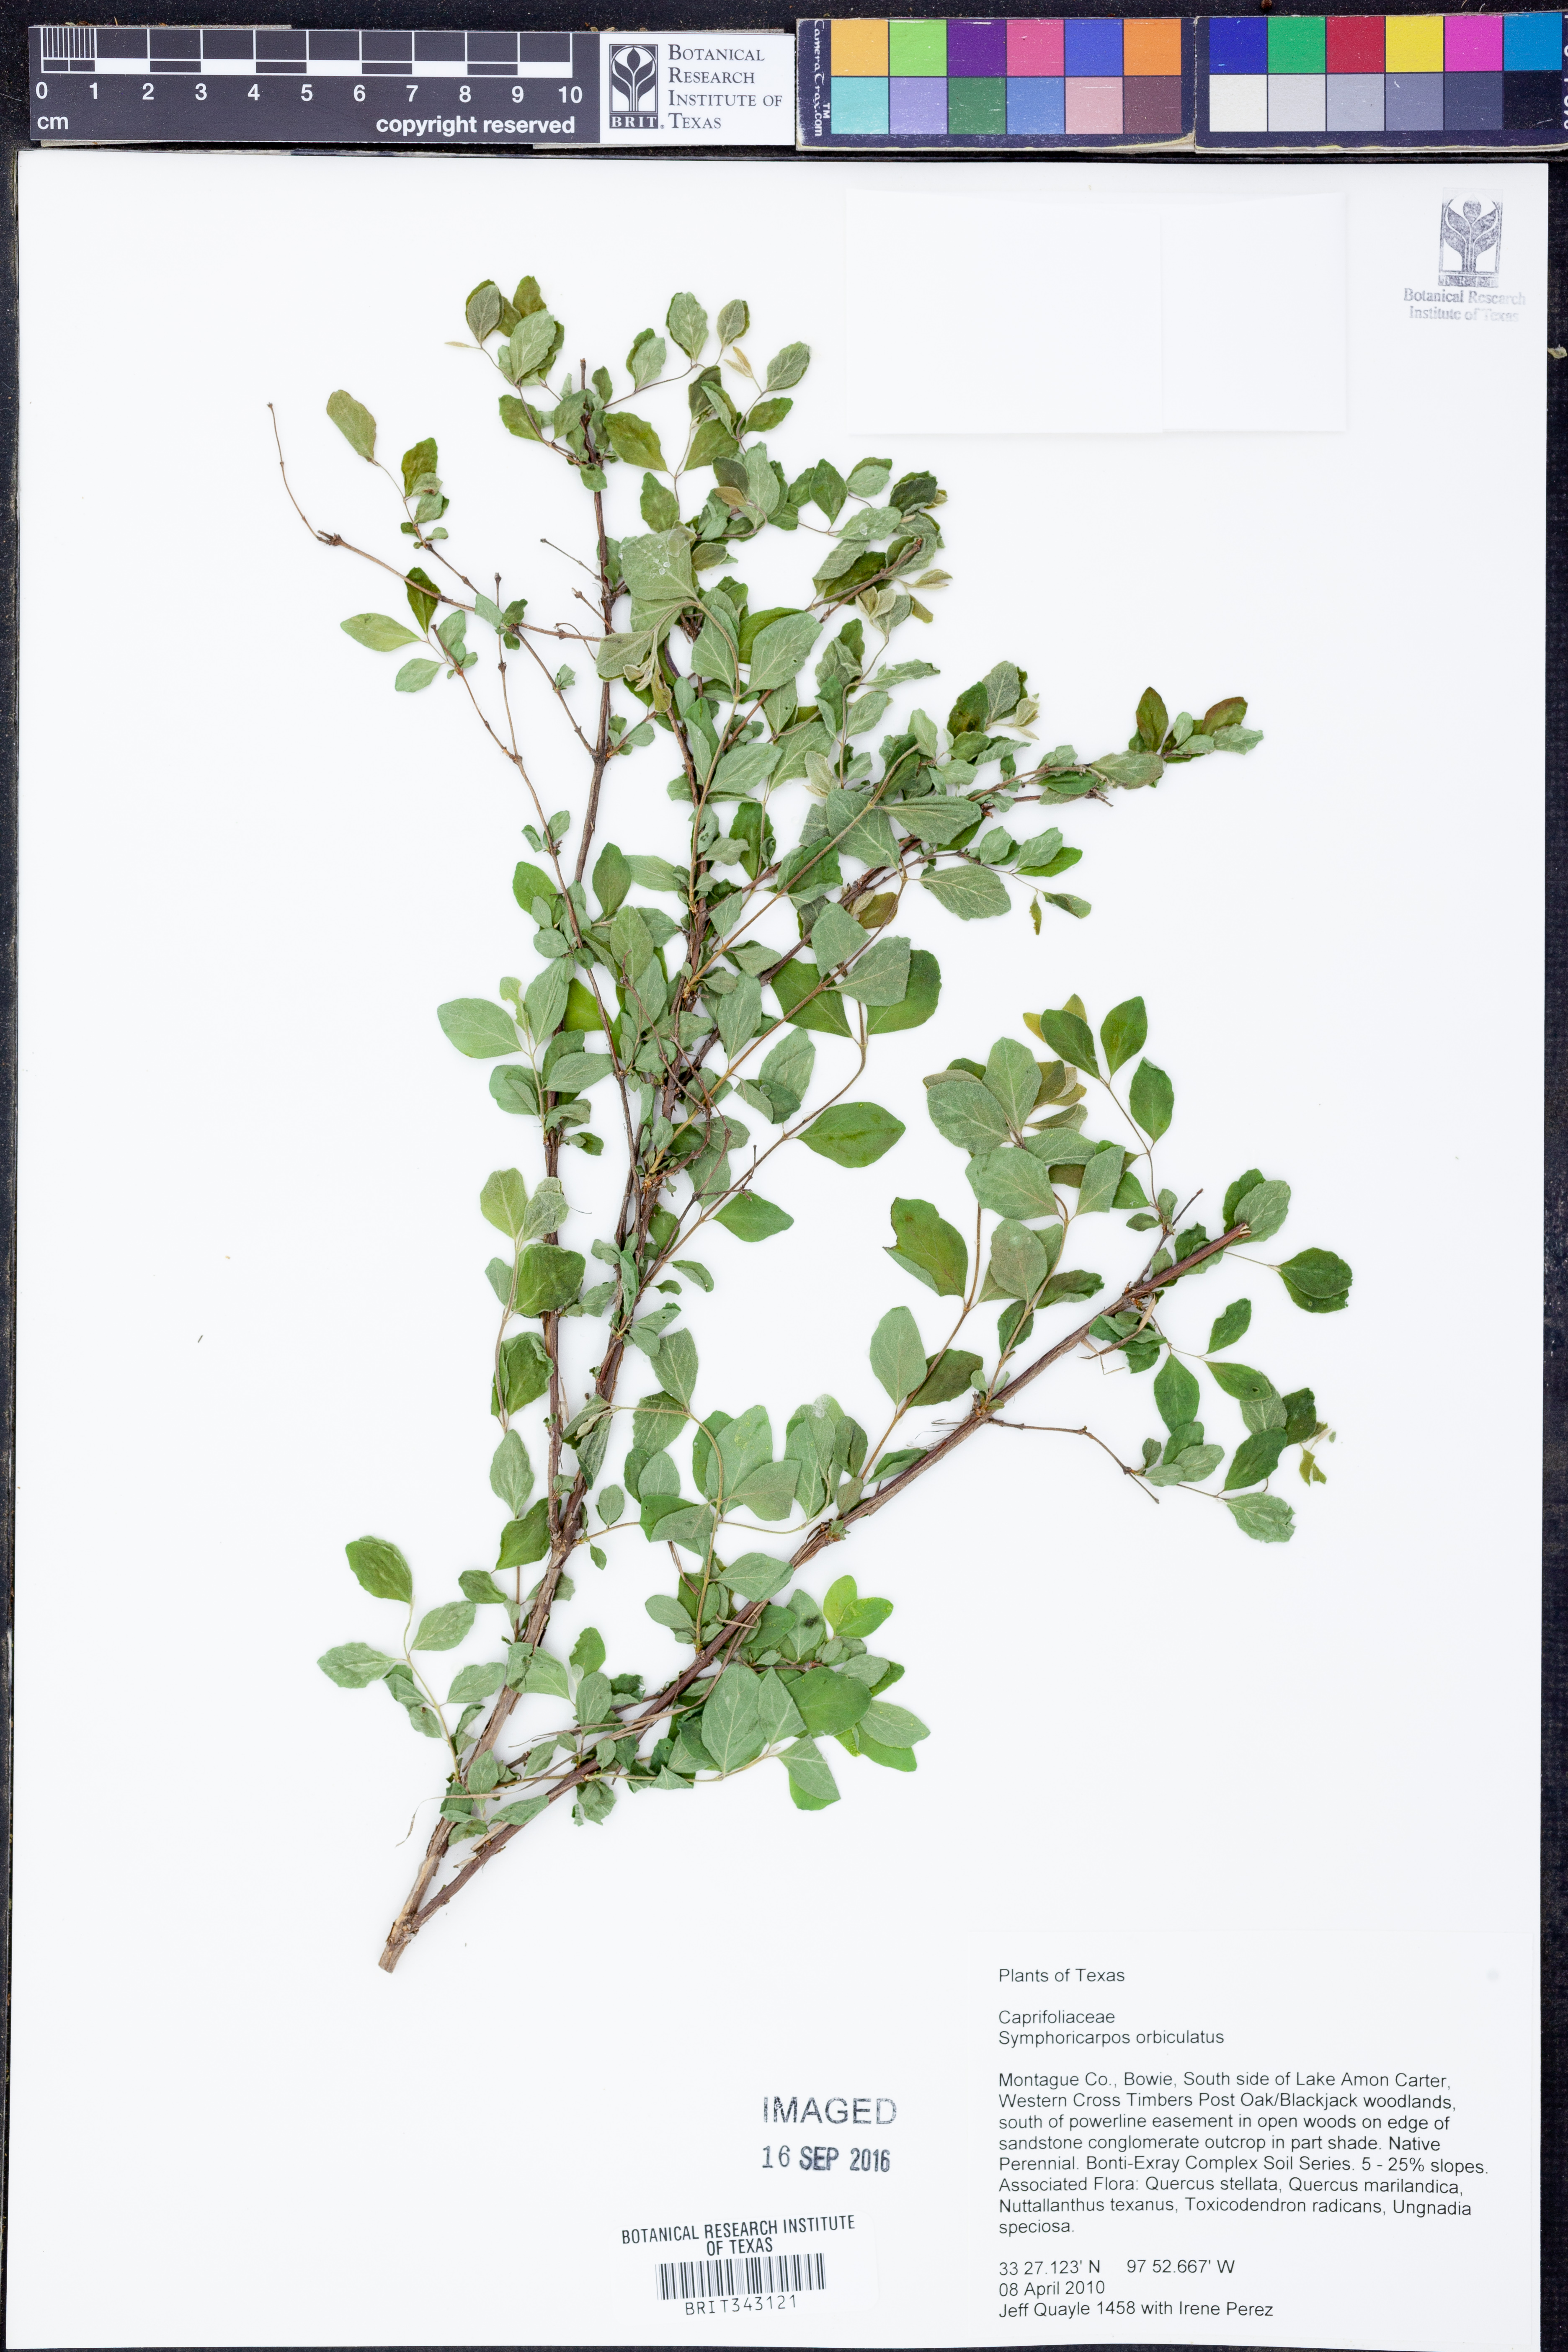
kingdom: Plantae
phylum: Tracheophyta
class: Magnoliopsida
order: Dipsacales
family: Caprifoliaceae
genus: Symphoricarpos
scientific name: Symphoricarpos orbiculatus
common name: Coralberry
